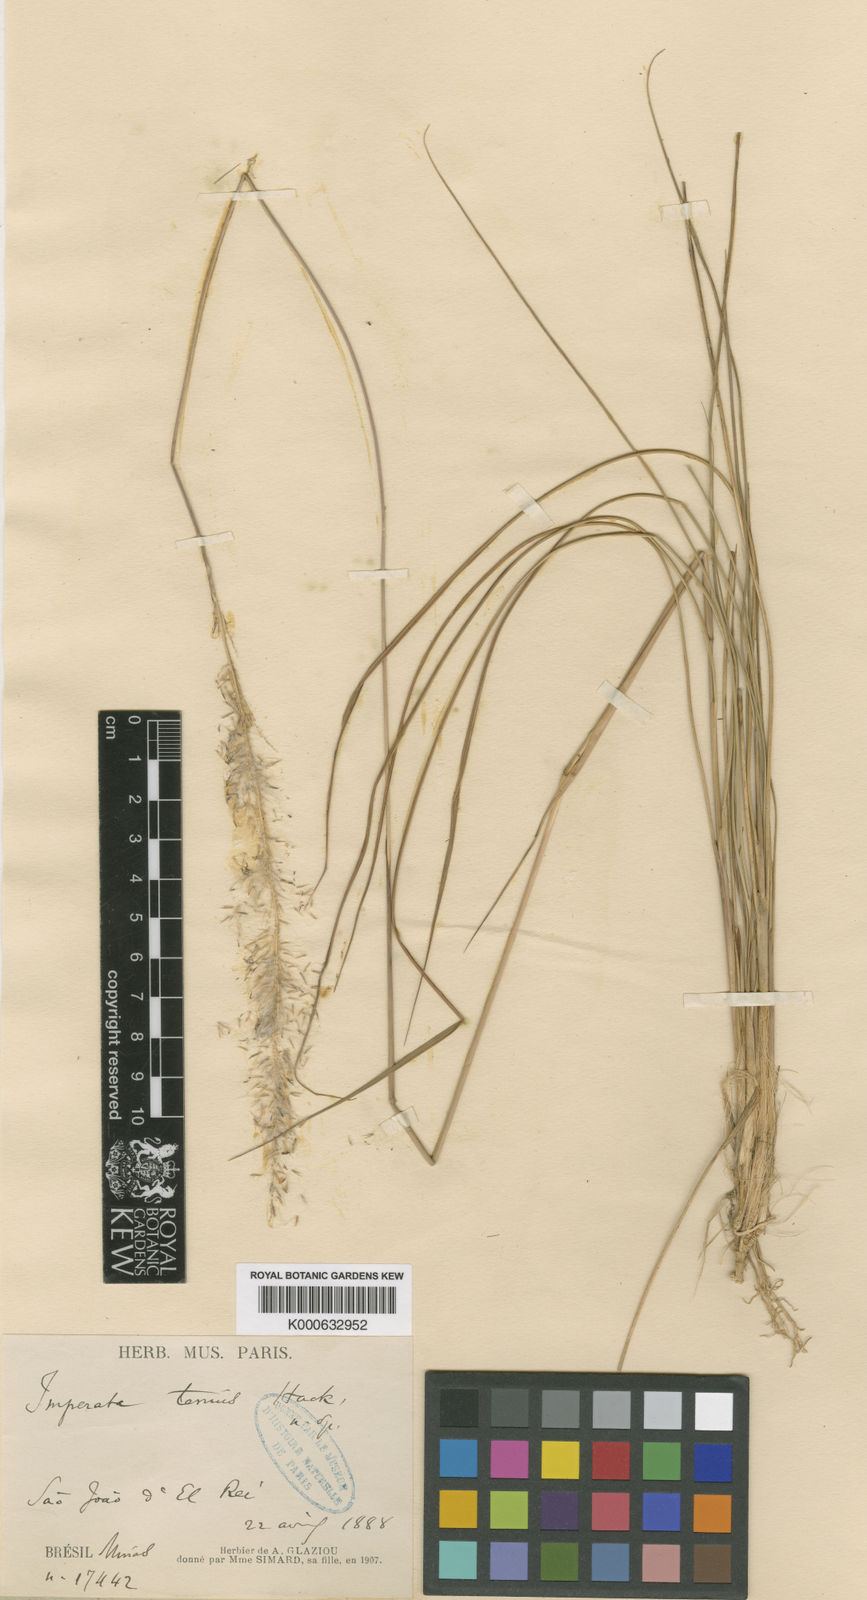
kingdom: Plantae
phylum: Tracheophyta
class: Liliopsida
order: Poales
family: Poaceae
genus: Imperata
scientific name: Imperata tenuis
